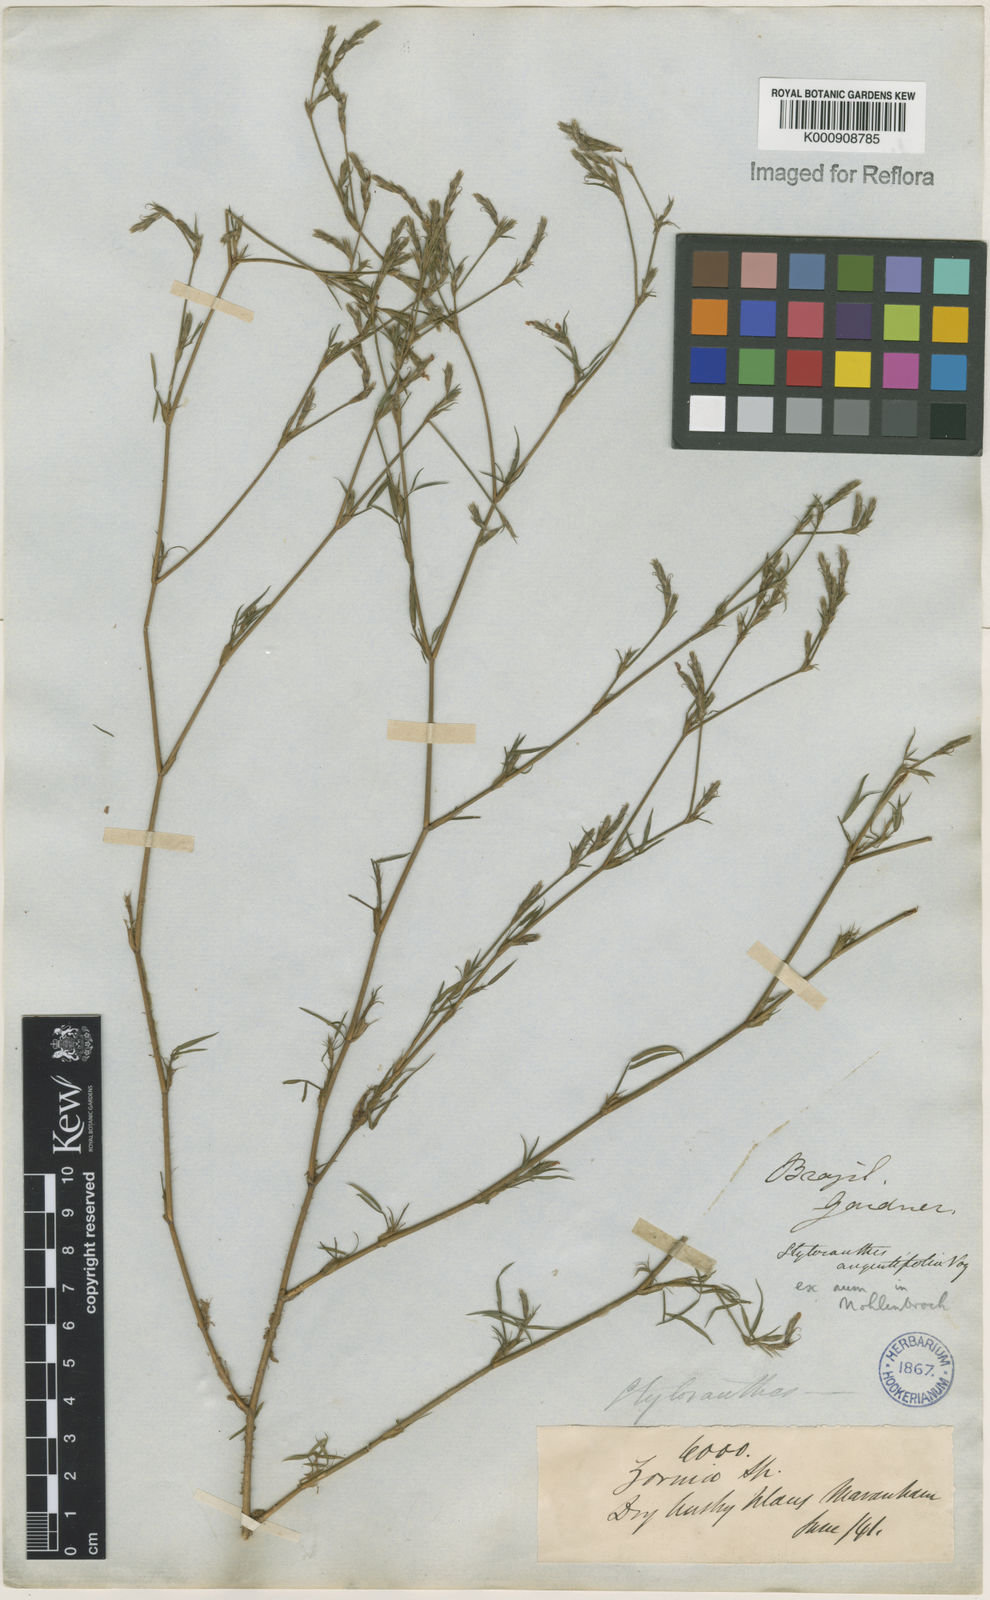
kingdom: Plantae
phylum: Tracheophyta
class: Magnoliopsida
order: Fabales
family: Fabaceae
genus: Stylosanthes
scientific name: Stylosanthes angustifolia
